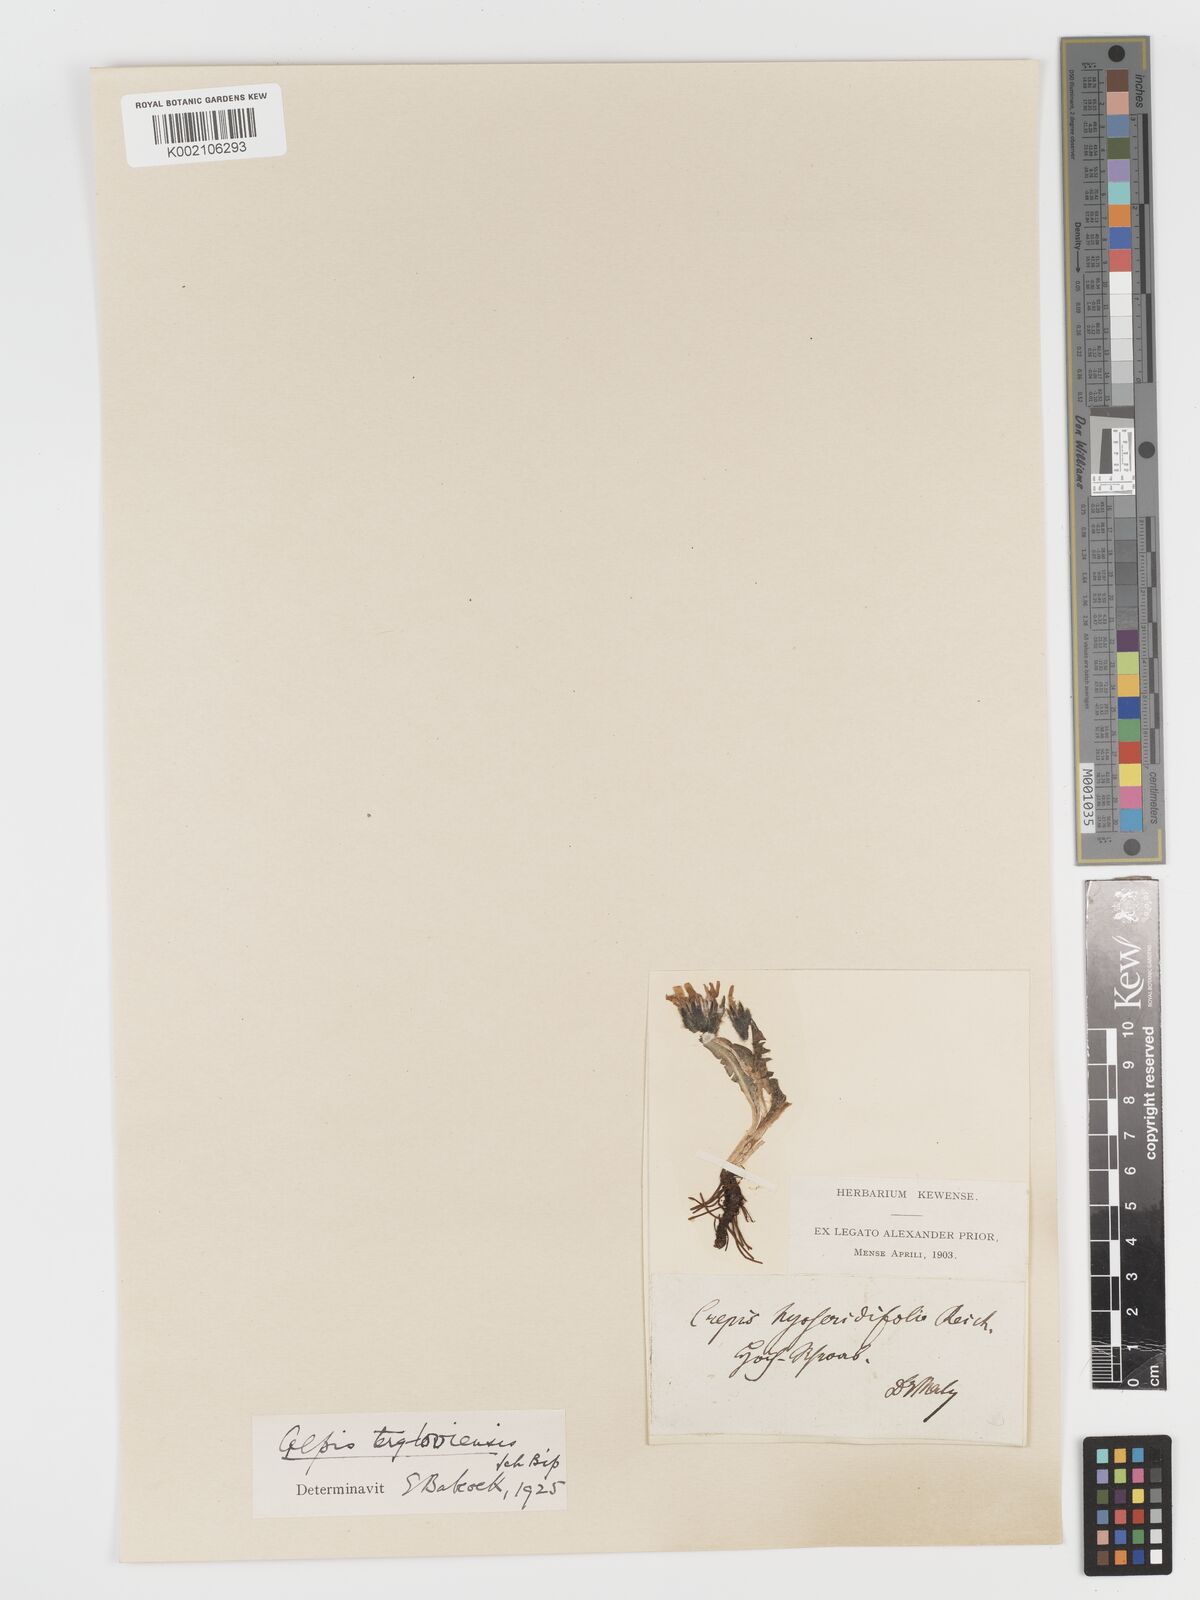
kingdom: Plantae
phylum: Tracheophyta
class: Magnoliopsida
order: Asterales
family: Asteraceae
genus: Crepis
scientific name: Crepis terglouensis
